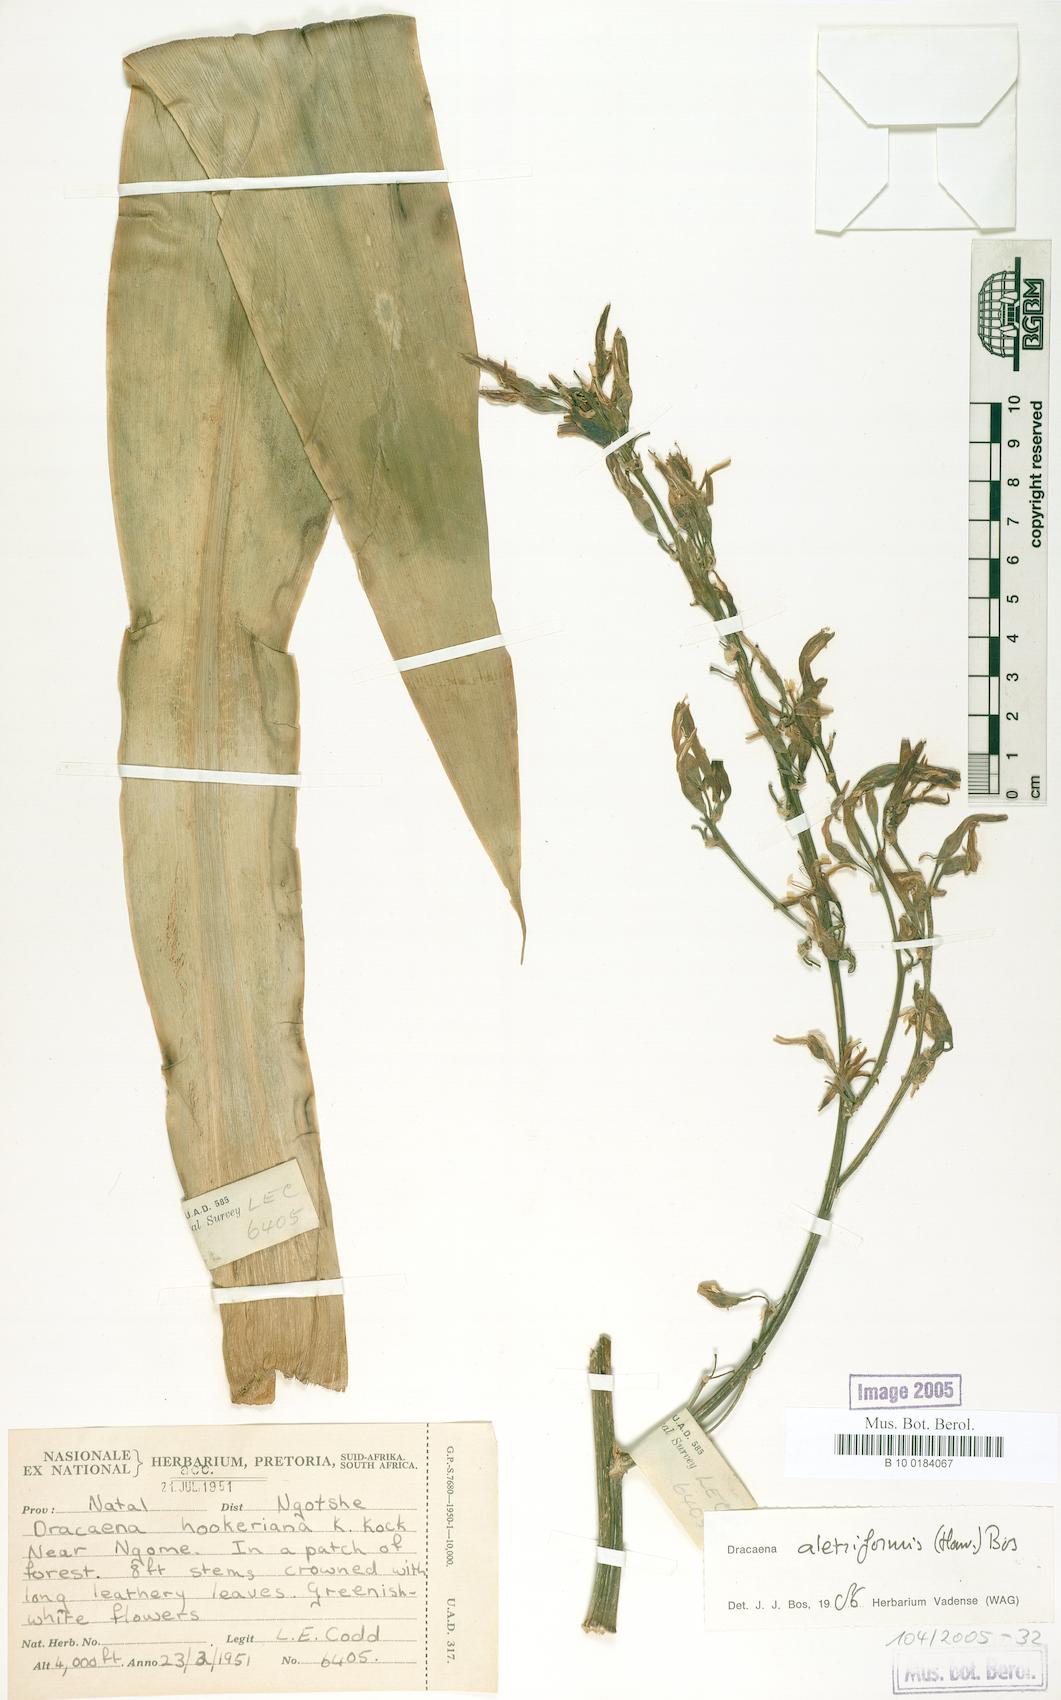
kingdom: Plantae
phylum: Tracheophyta
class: Liliopsida
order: Asparagales
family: Asparagaceae
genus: Dracaena
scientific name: Dracaena aletriformis
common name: Large-leaved dragon tree
